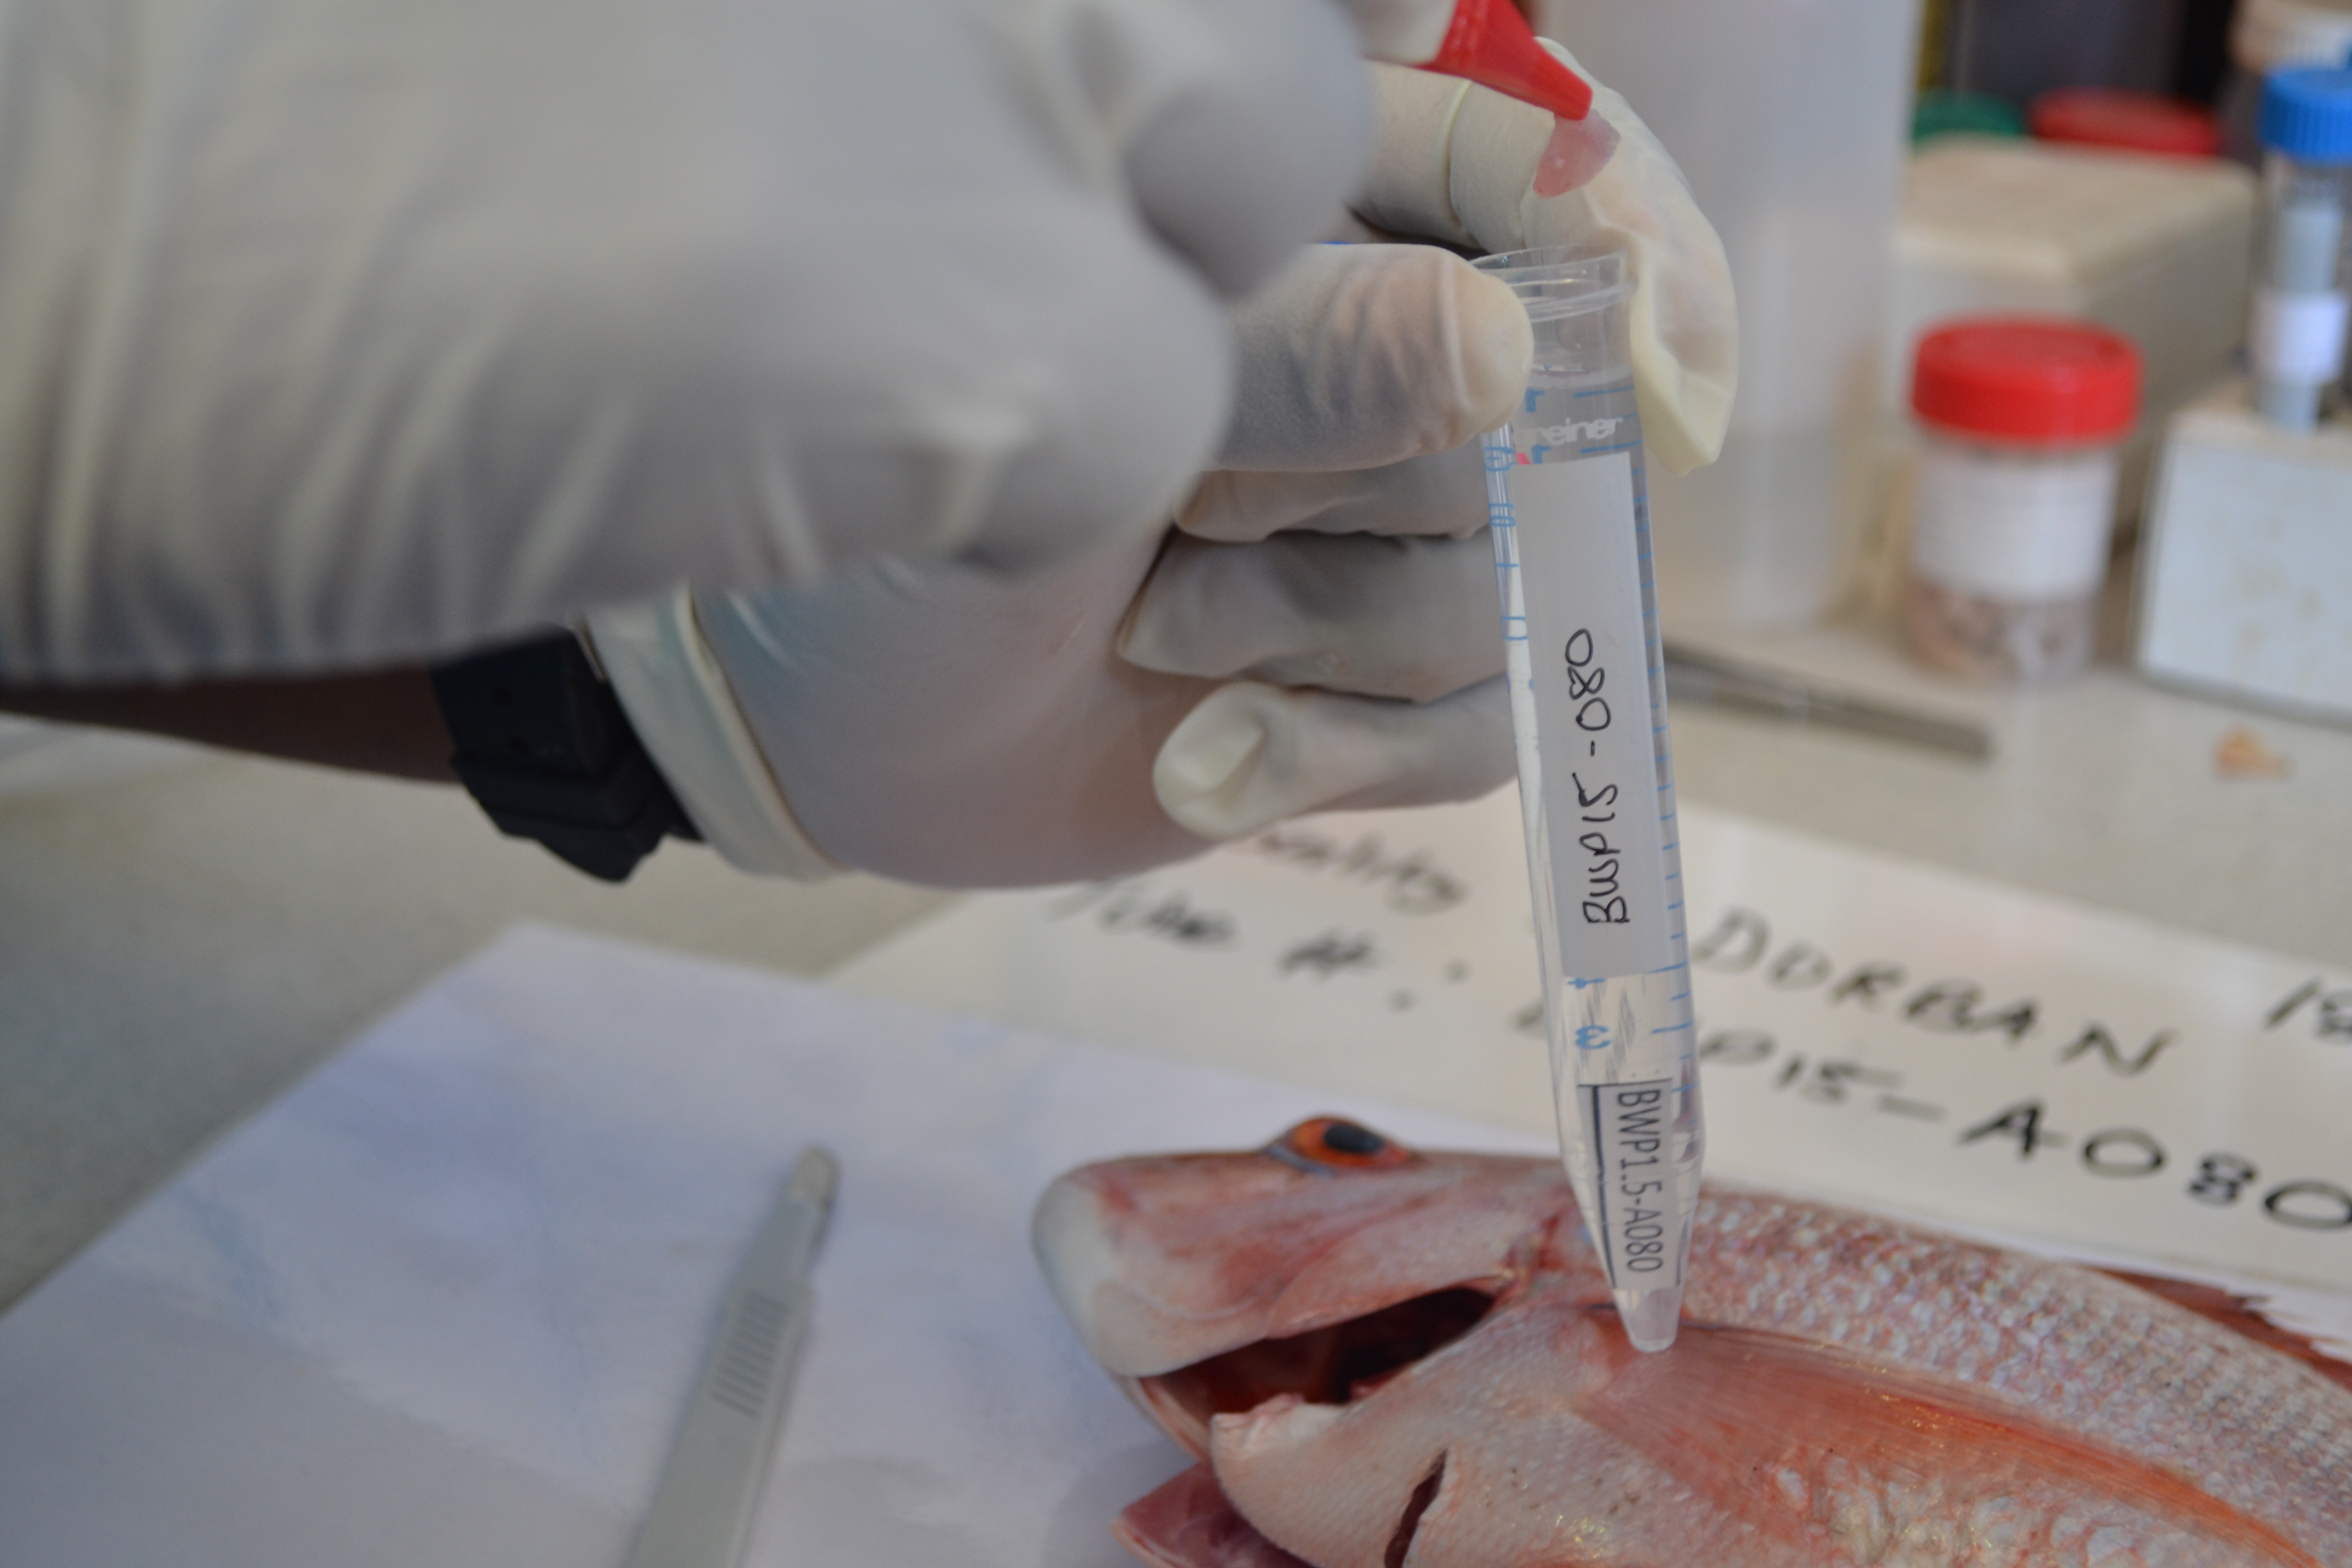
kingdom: Animalia
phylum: Chordata
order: Perciformes
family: Sparidae
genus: Chrysoblephus
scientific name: Chrysoblephus puniceus
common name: Slinger seabream
